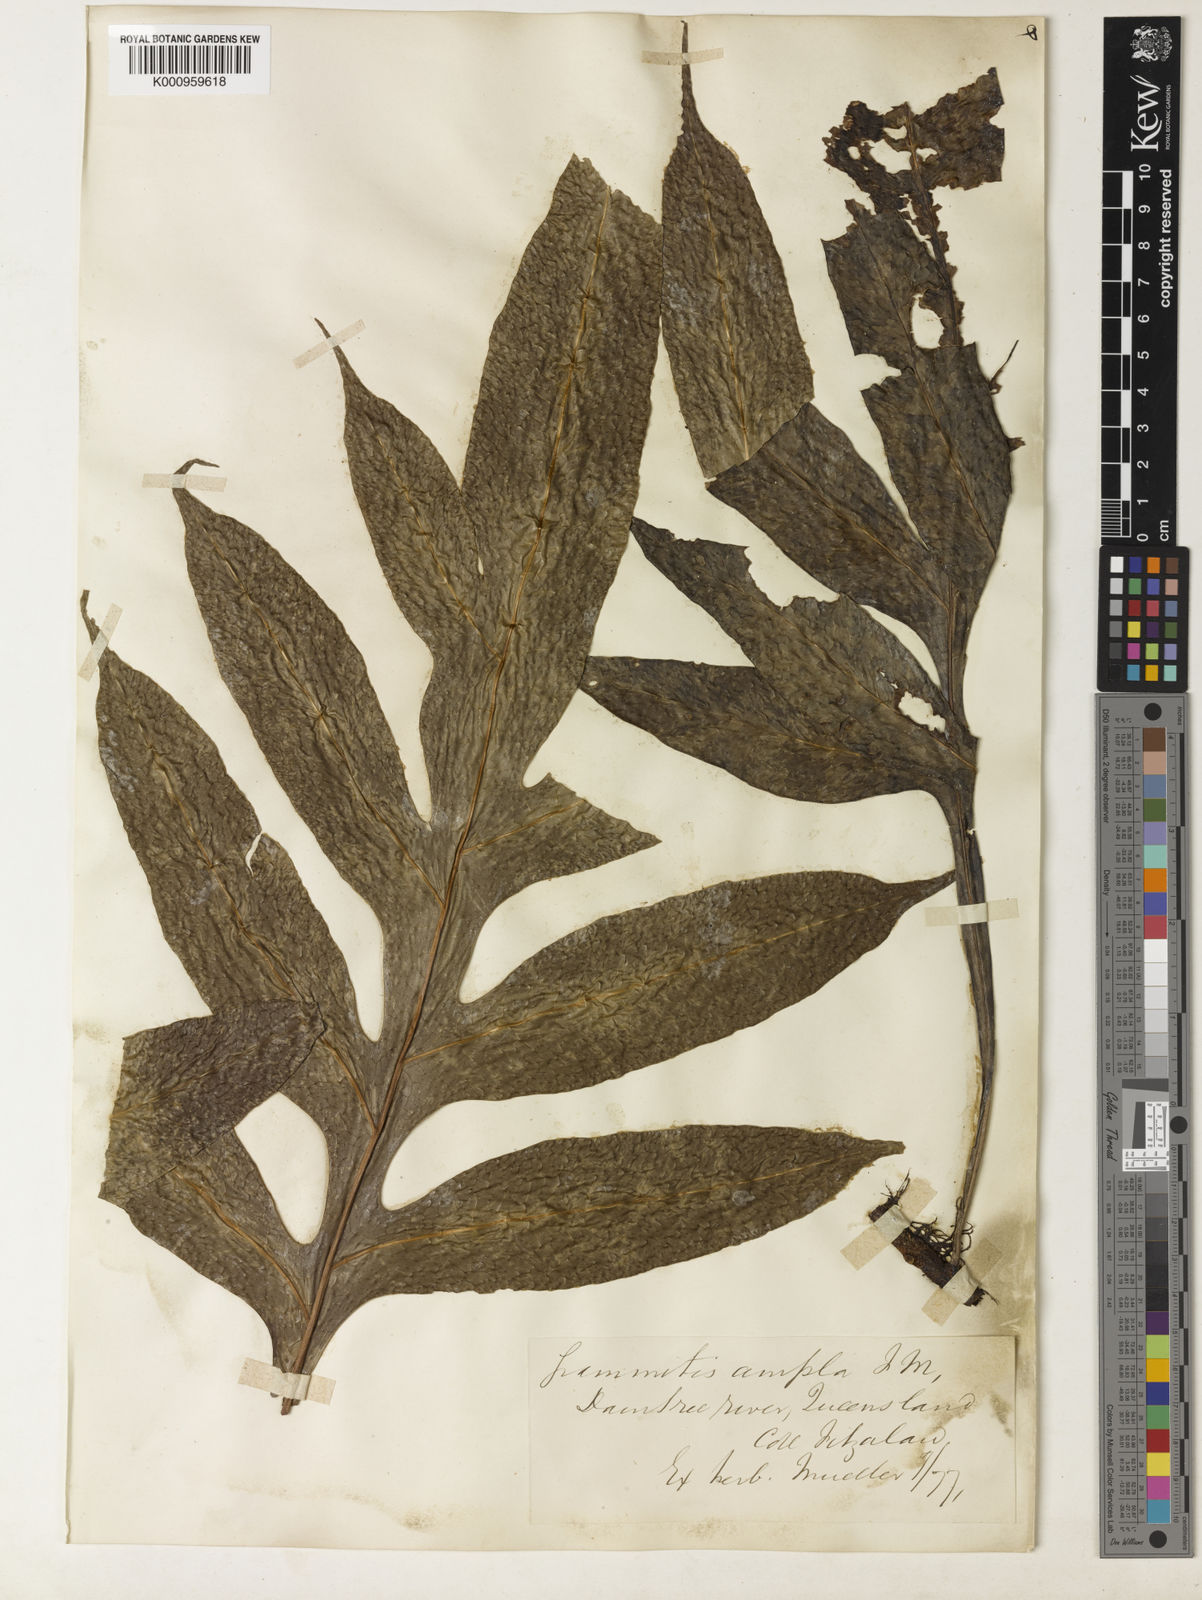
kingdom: Plantae
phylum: Tracheophyta
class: Polypodiopsida
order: Polypodiales
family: Polypodiaceae
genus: Lecanopteris
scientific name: Lecanopteris ampla
